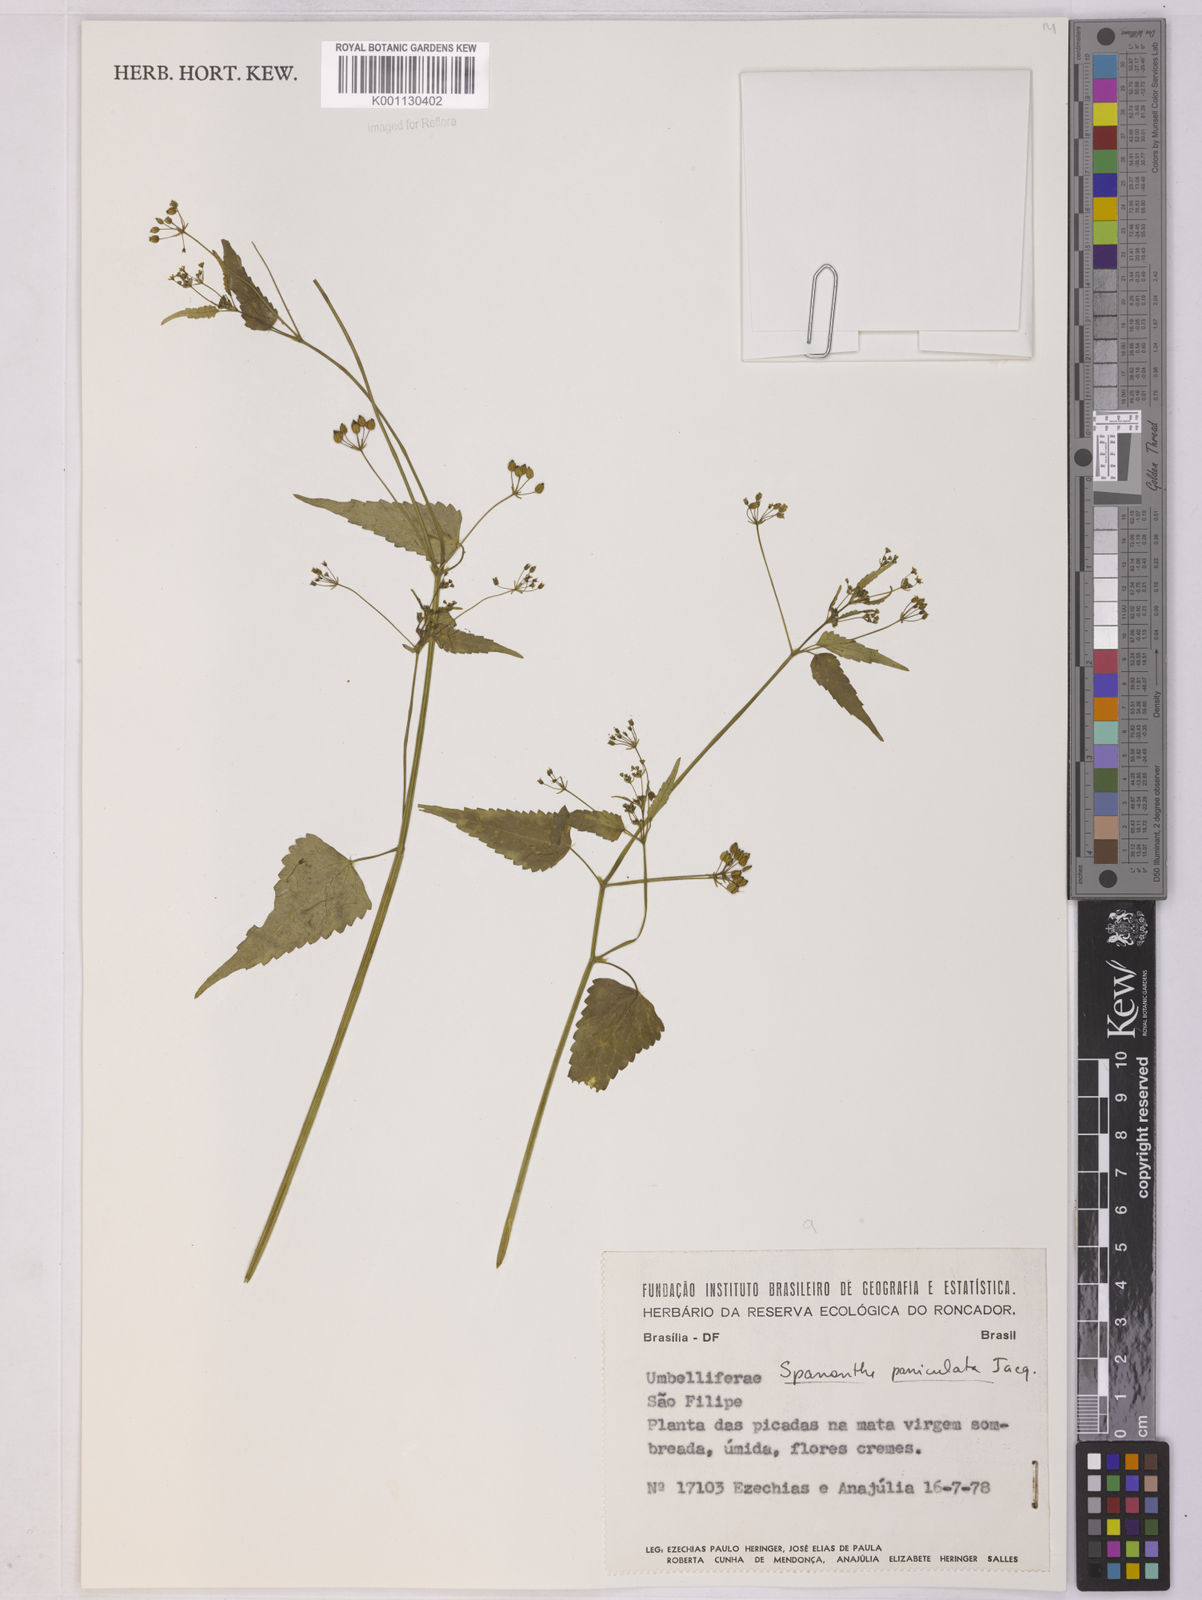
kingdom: Plantae
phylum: Tracheophyta
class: Magnoliopsida
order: Apiales
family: Apiaceae
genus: Spananthe
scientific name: Spananthe paniculata
